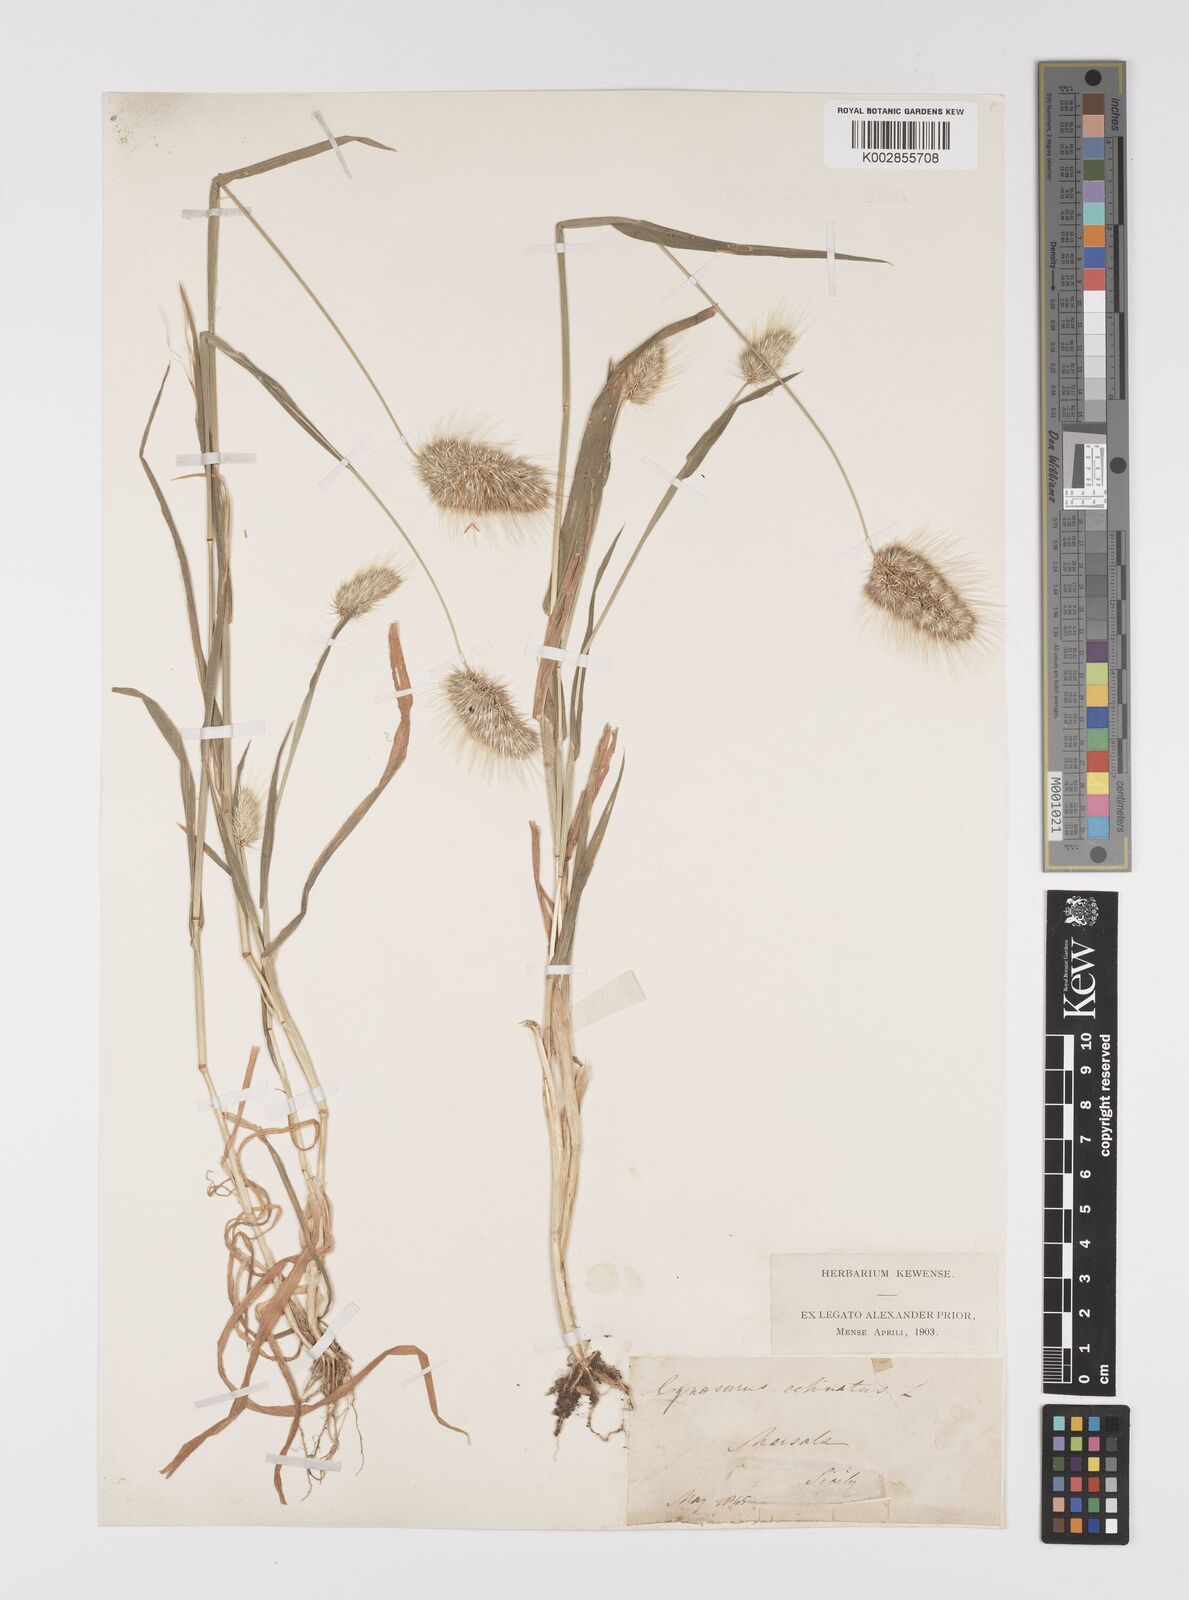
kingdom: Plantae
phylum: Tracheophyta
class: Liliopsida
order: Poales
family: Poaceae
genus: Cynosurus
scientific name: Cynosurus echinatus
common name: Rough dog's-tail
